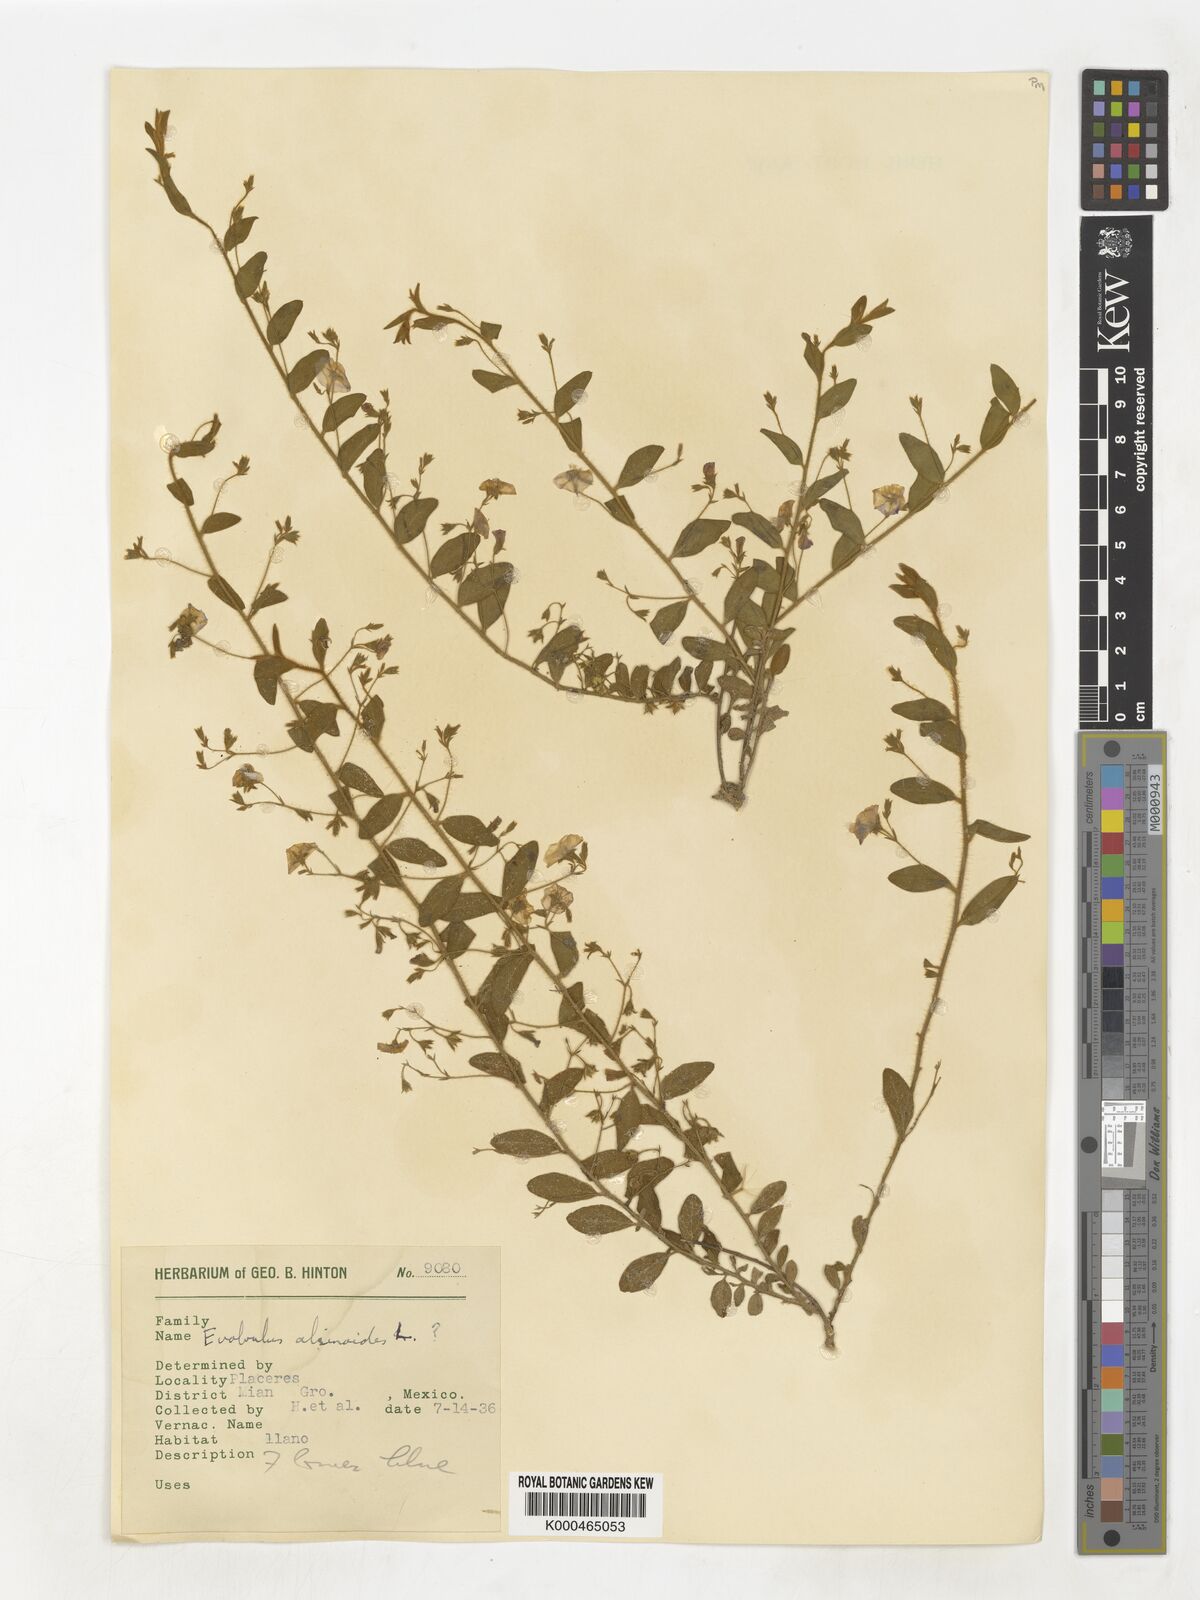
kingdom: Plantae
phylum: Tracheophyta
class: Magnoliopsida
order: Solanales
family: Convolvulaceae
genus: Evolvulus
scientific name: Evolvulus alsinoides
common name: Slender dwarf morning-glory
